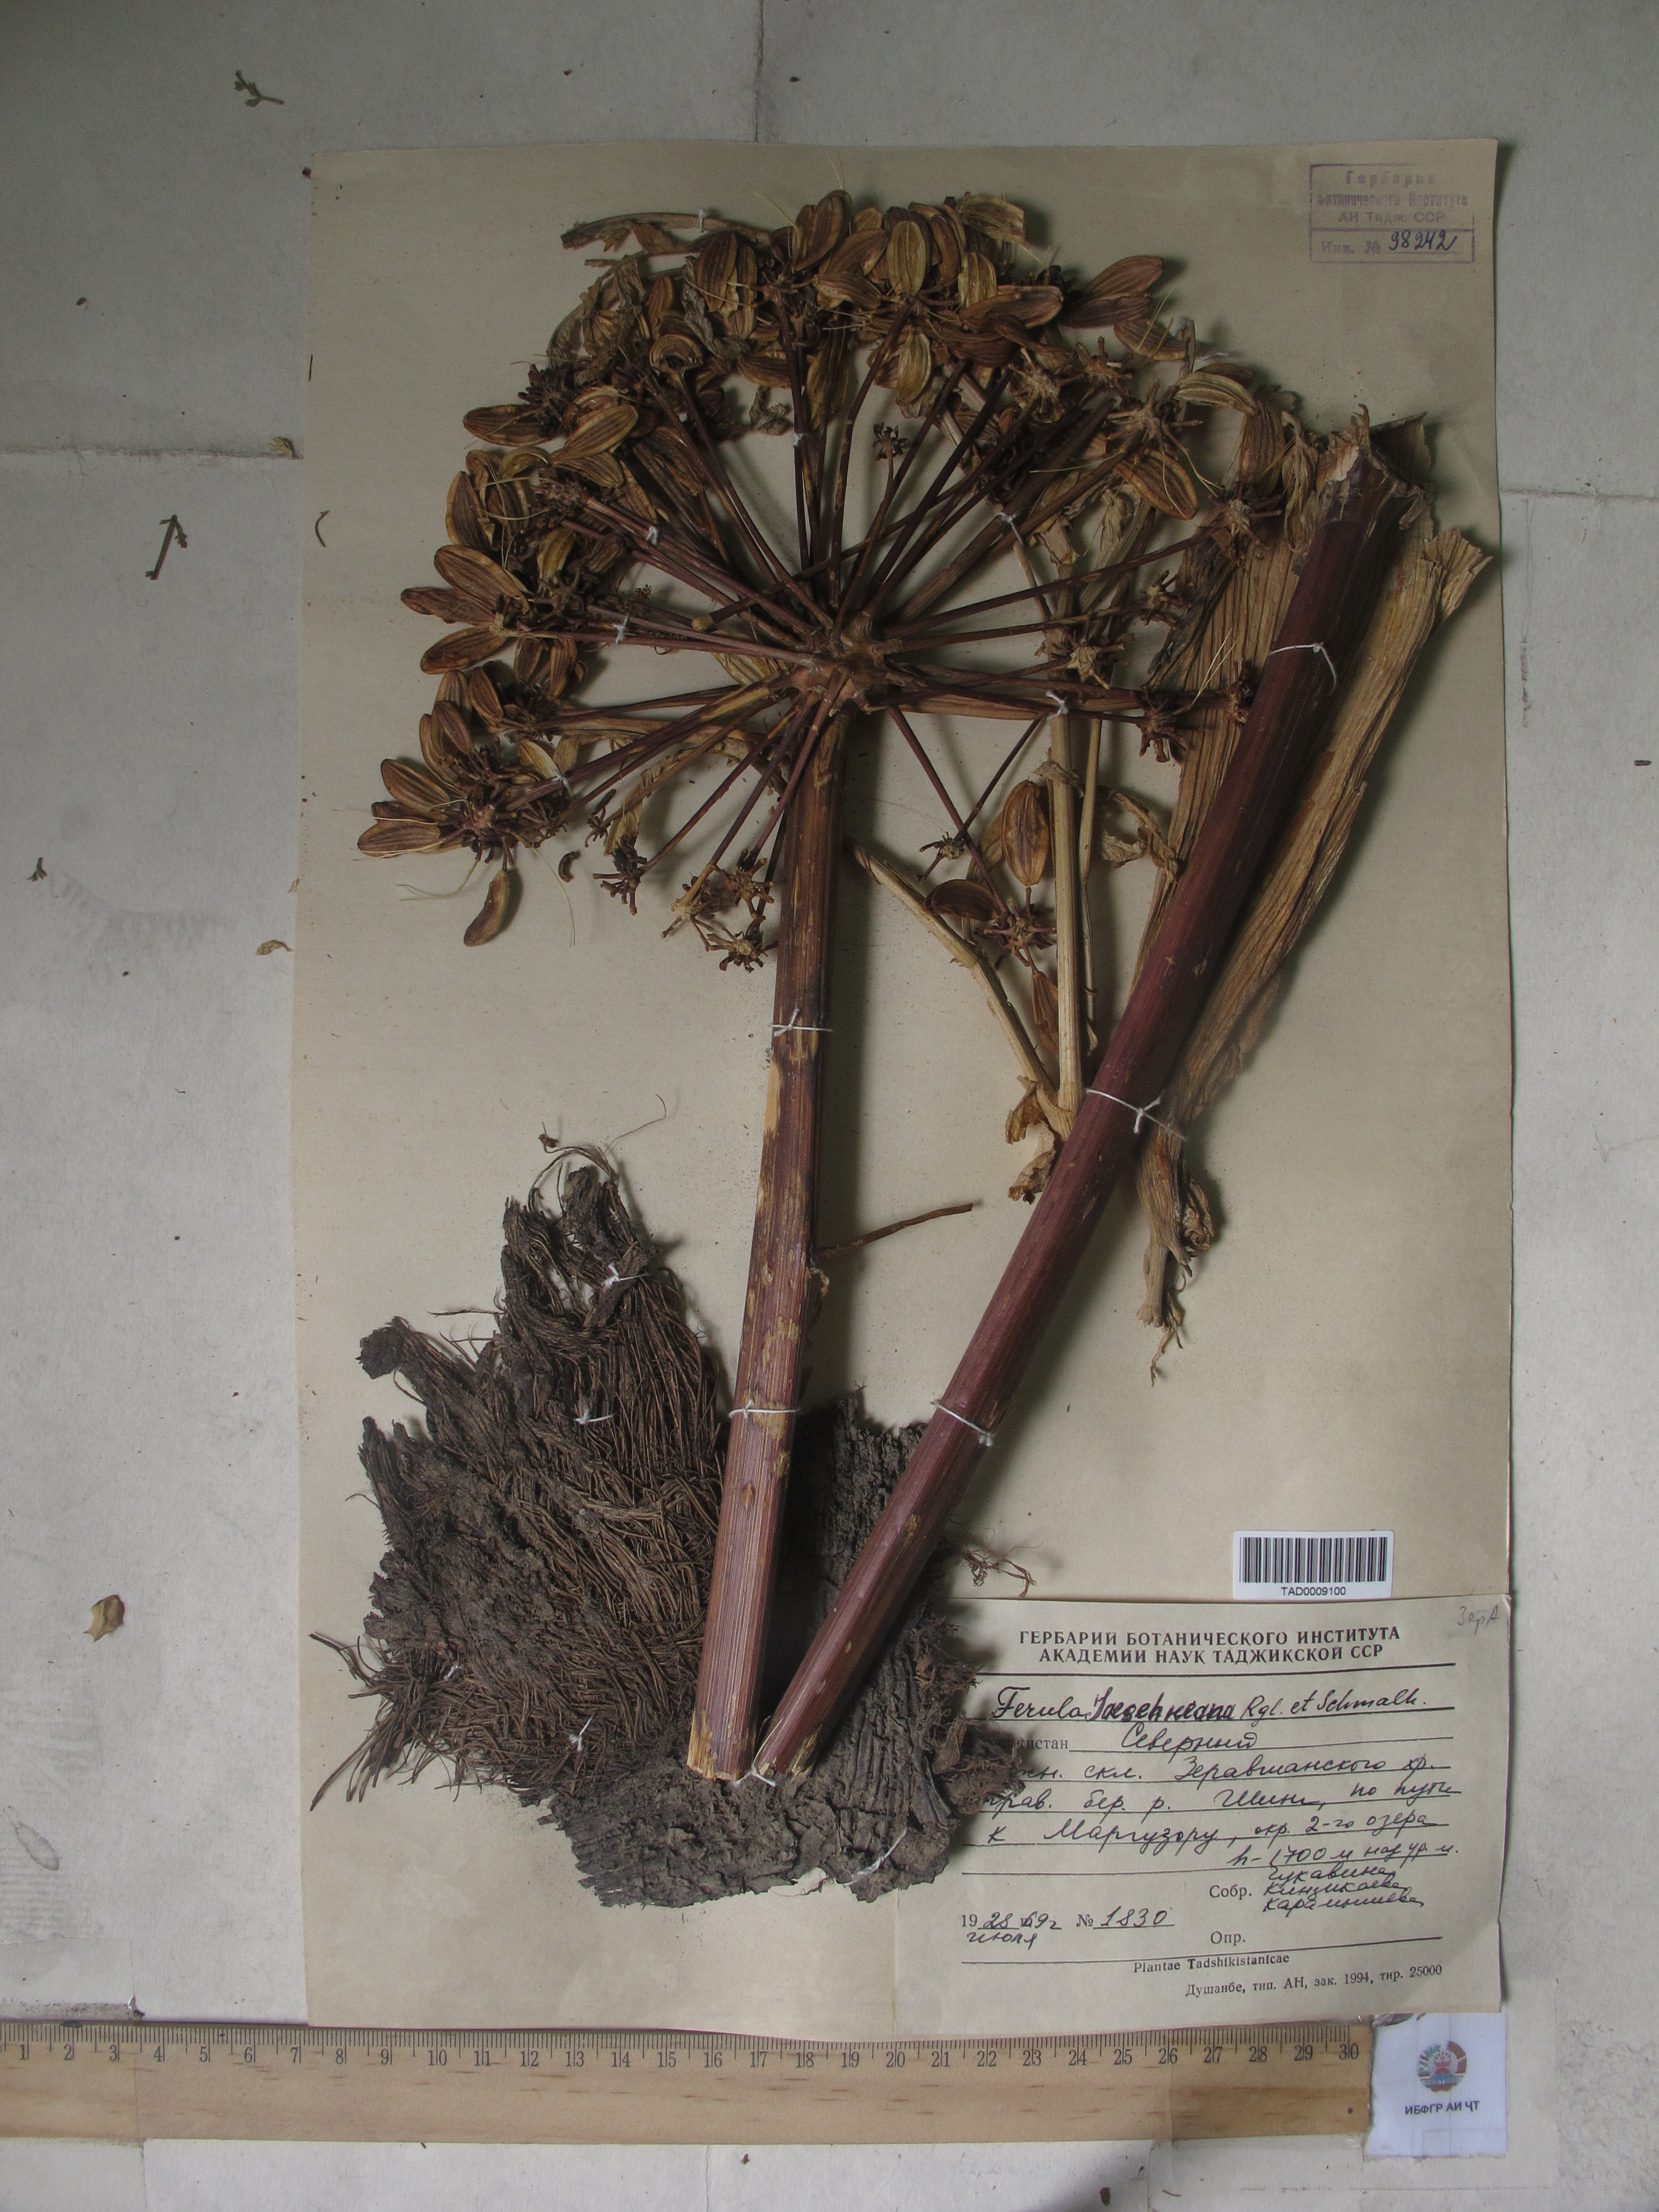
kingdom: Plantae
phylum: Tracheophyta
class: Magnoliopsida
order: Apiales
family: Apiaceae
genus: Ferula
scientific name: Ferula jaeschkeana
